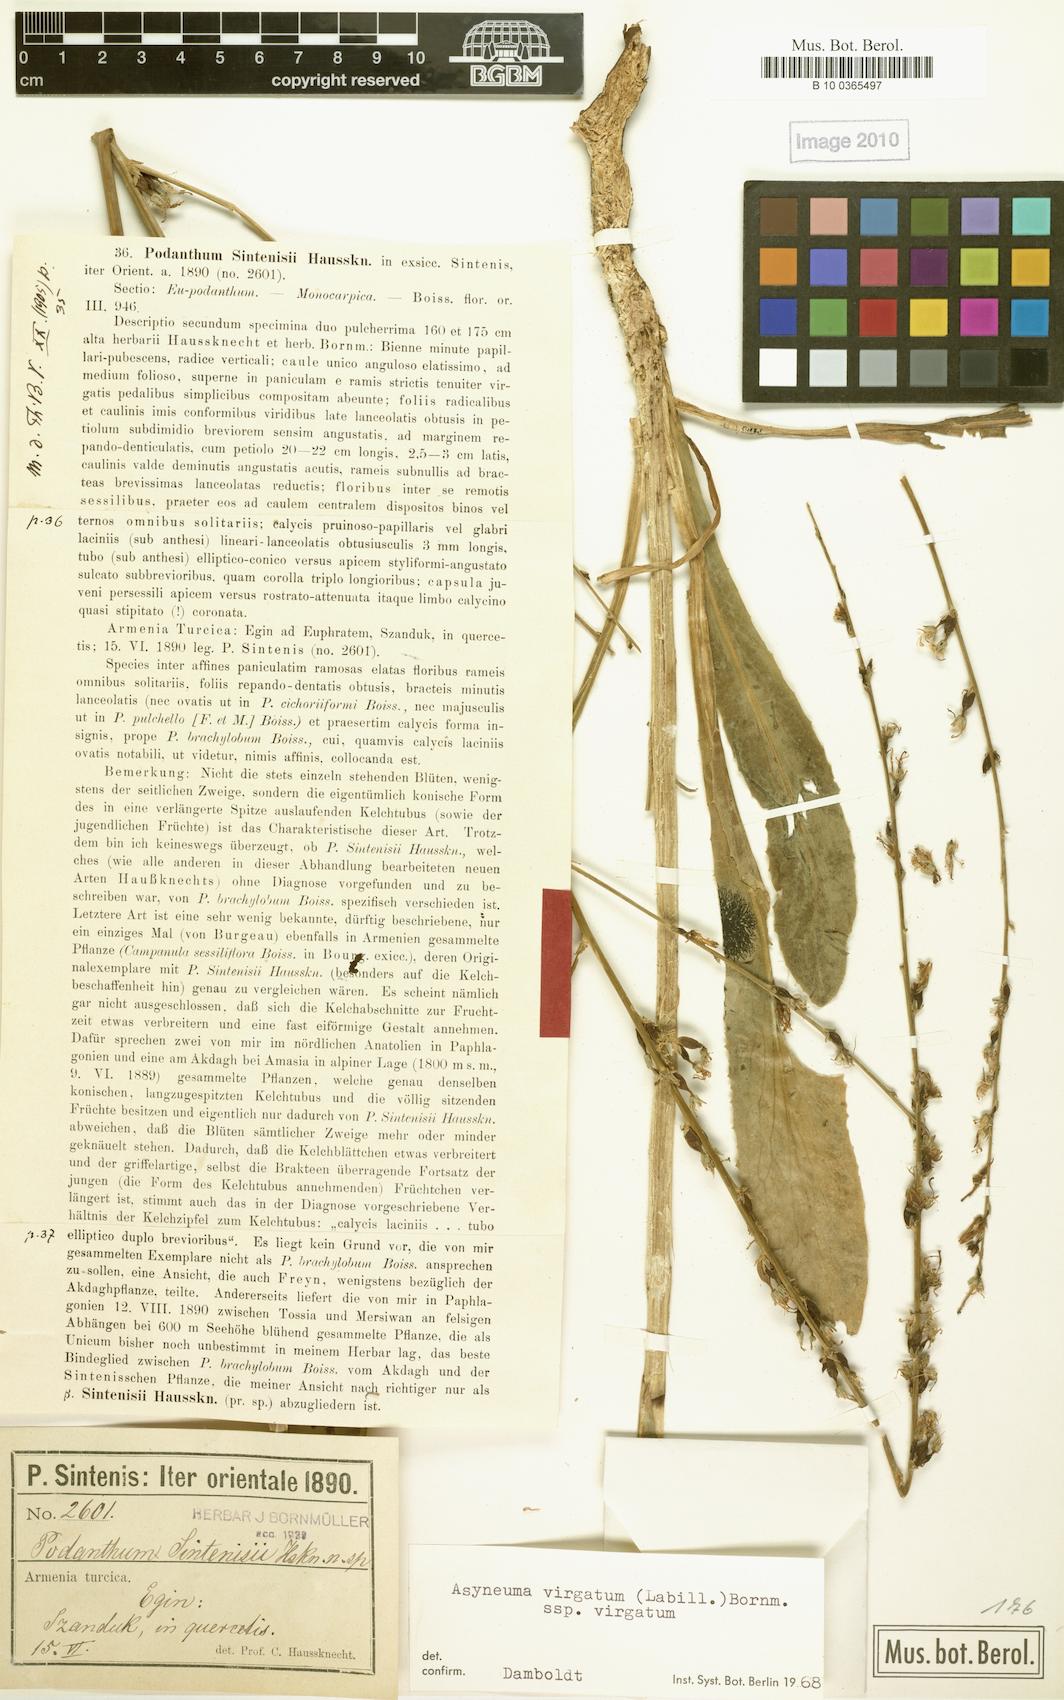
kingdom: Plantae
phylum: Tracheophyta
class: Magnoliopsida
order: Asterales
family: Campanulaceae
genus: Asyneuma
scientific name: Asyneuma virgatum
